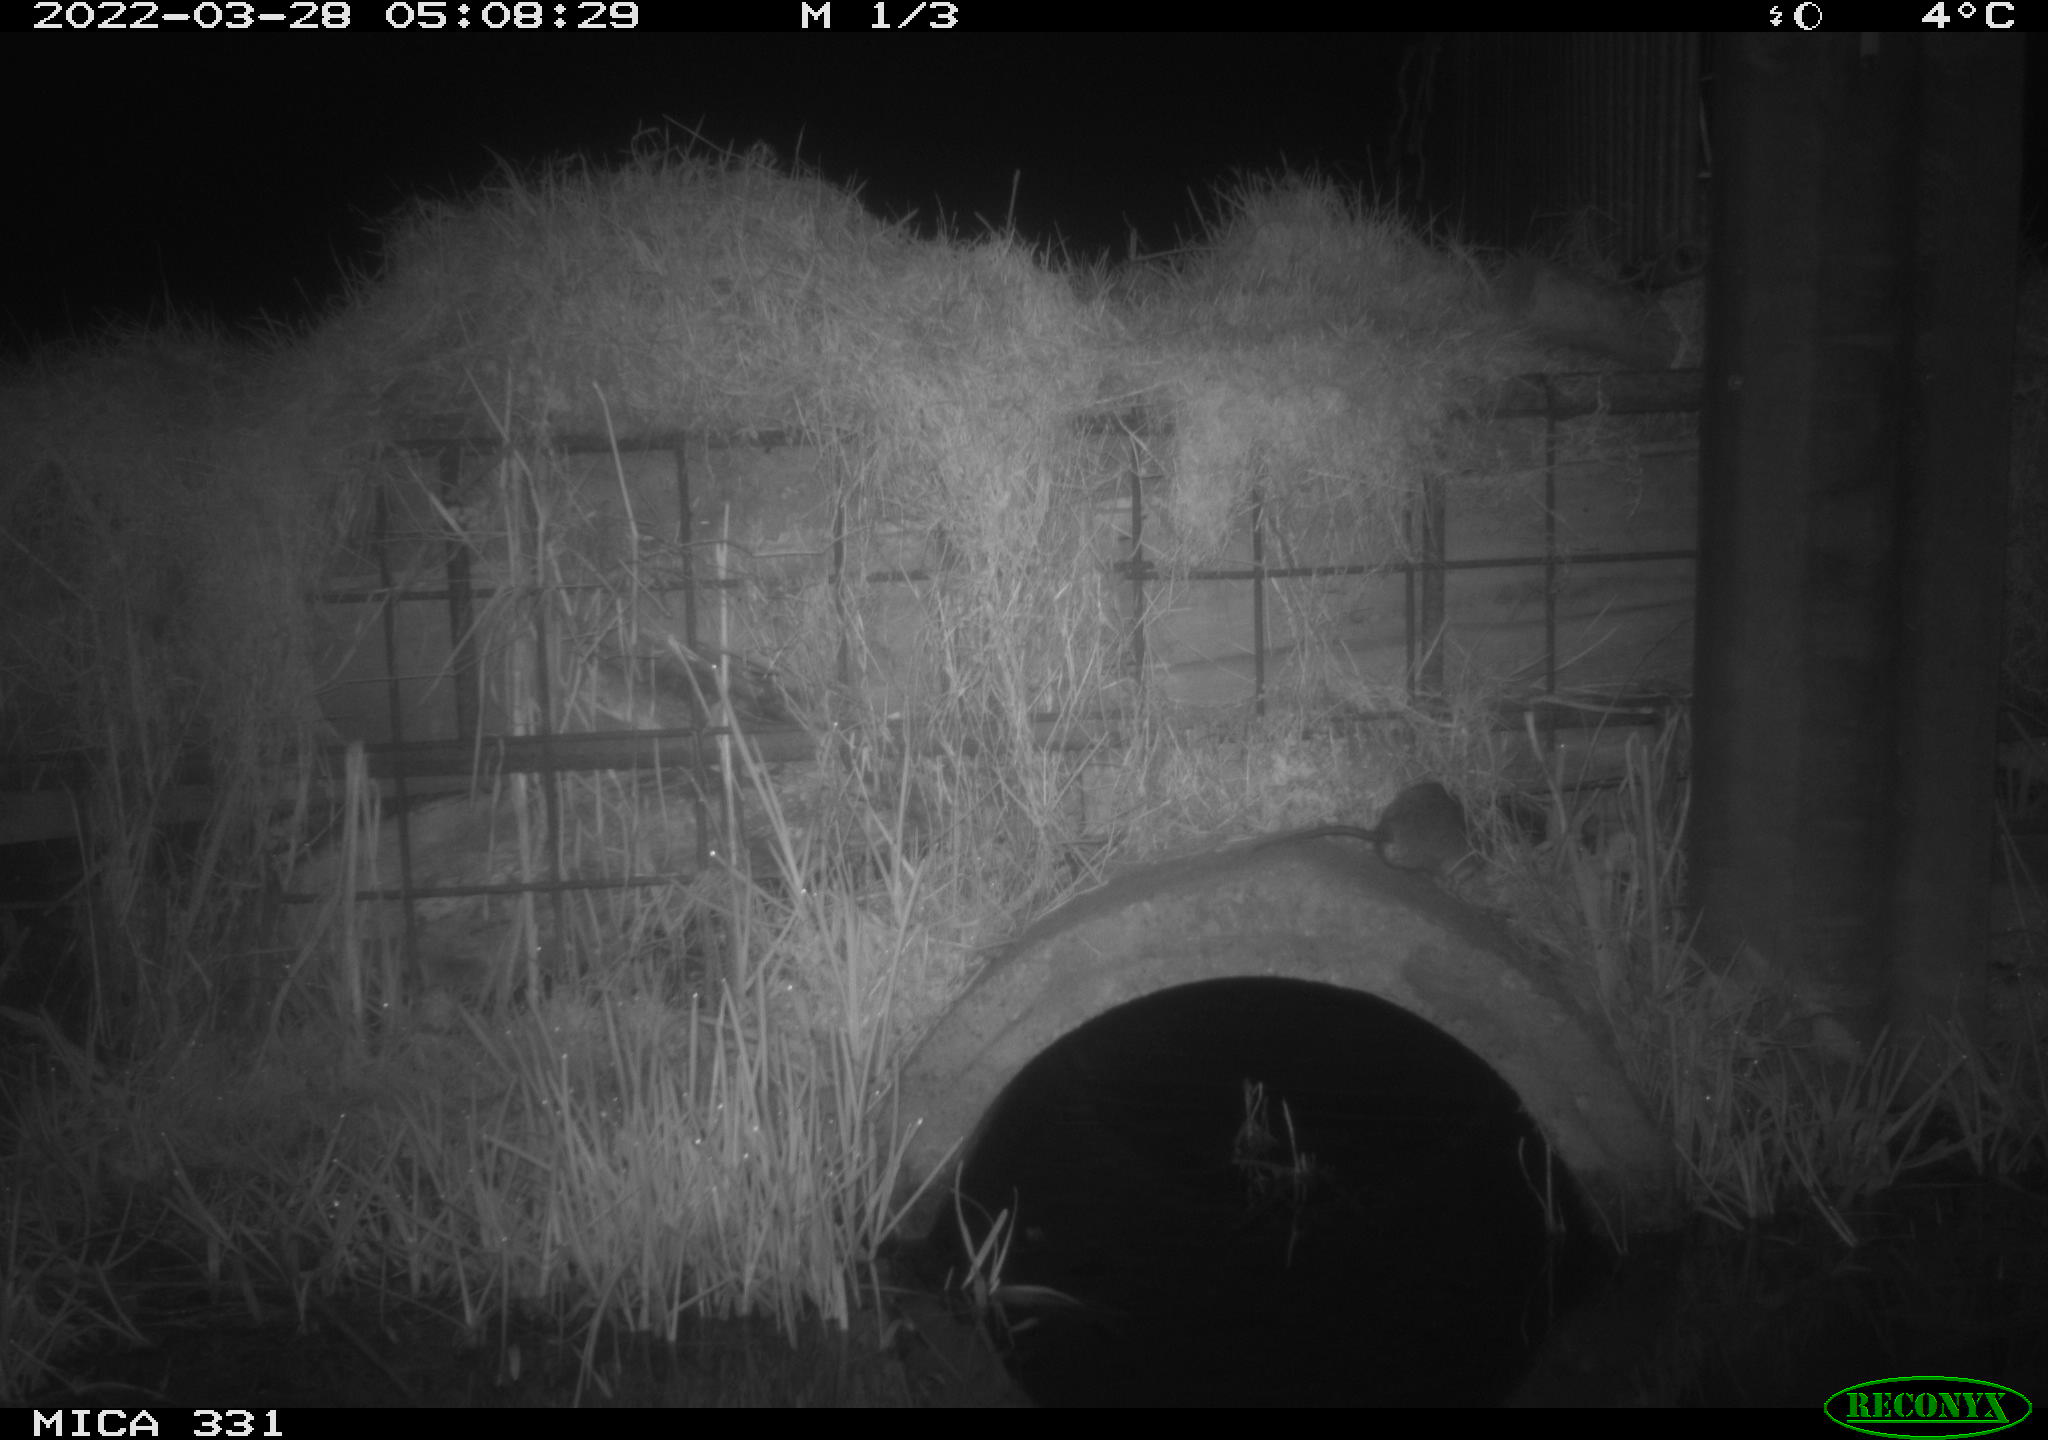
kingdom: Animalia
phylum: Chordata
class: Mammalia
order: Rodentia
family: Muridae
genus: Rattus
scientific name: Rattus norvegicus
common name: Brown rat
